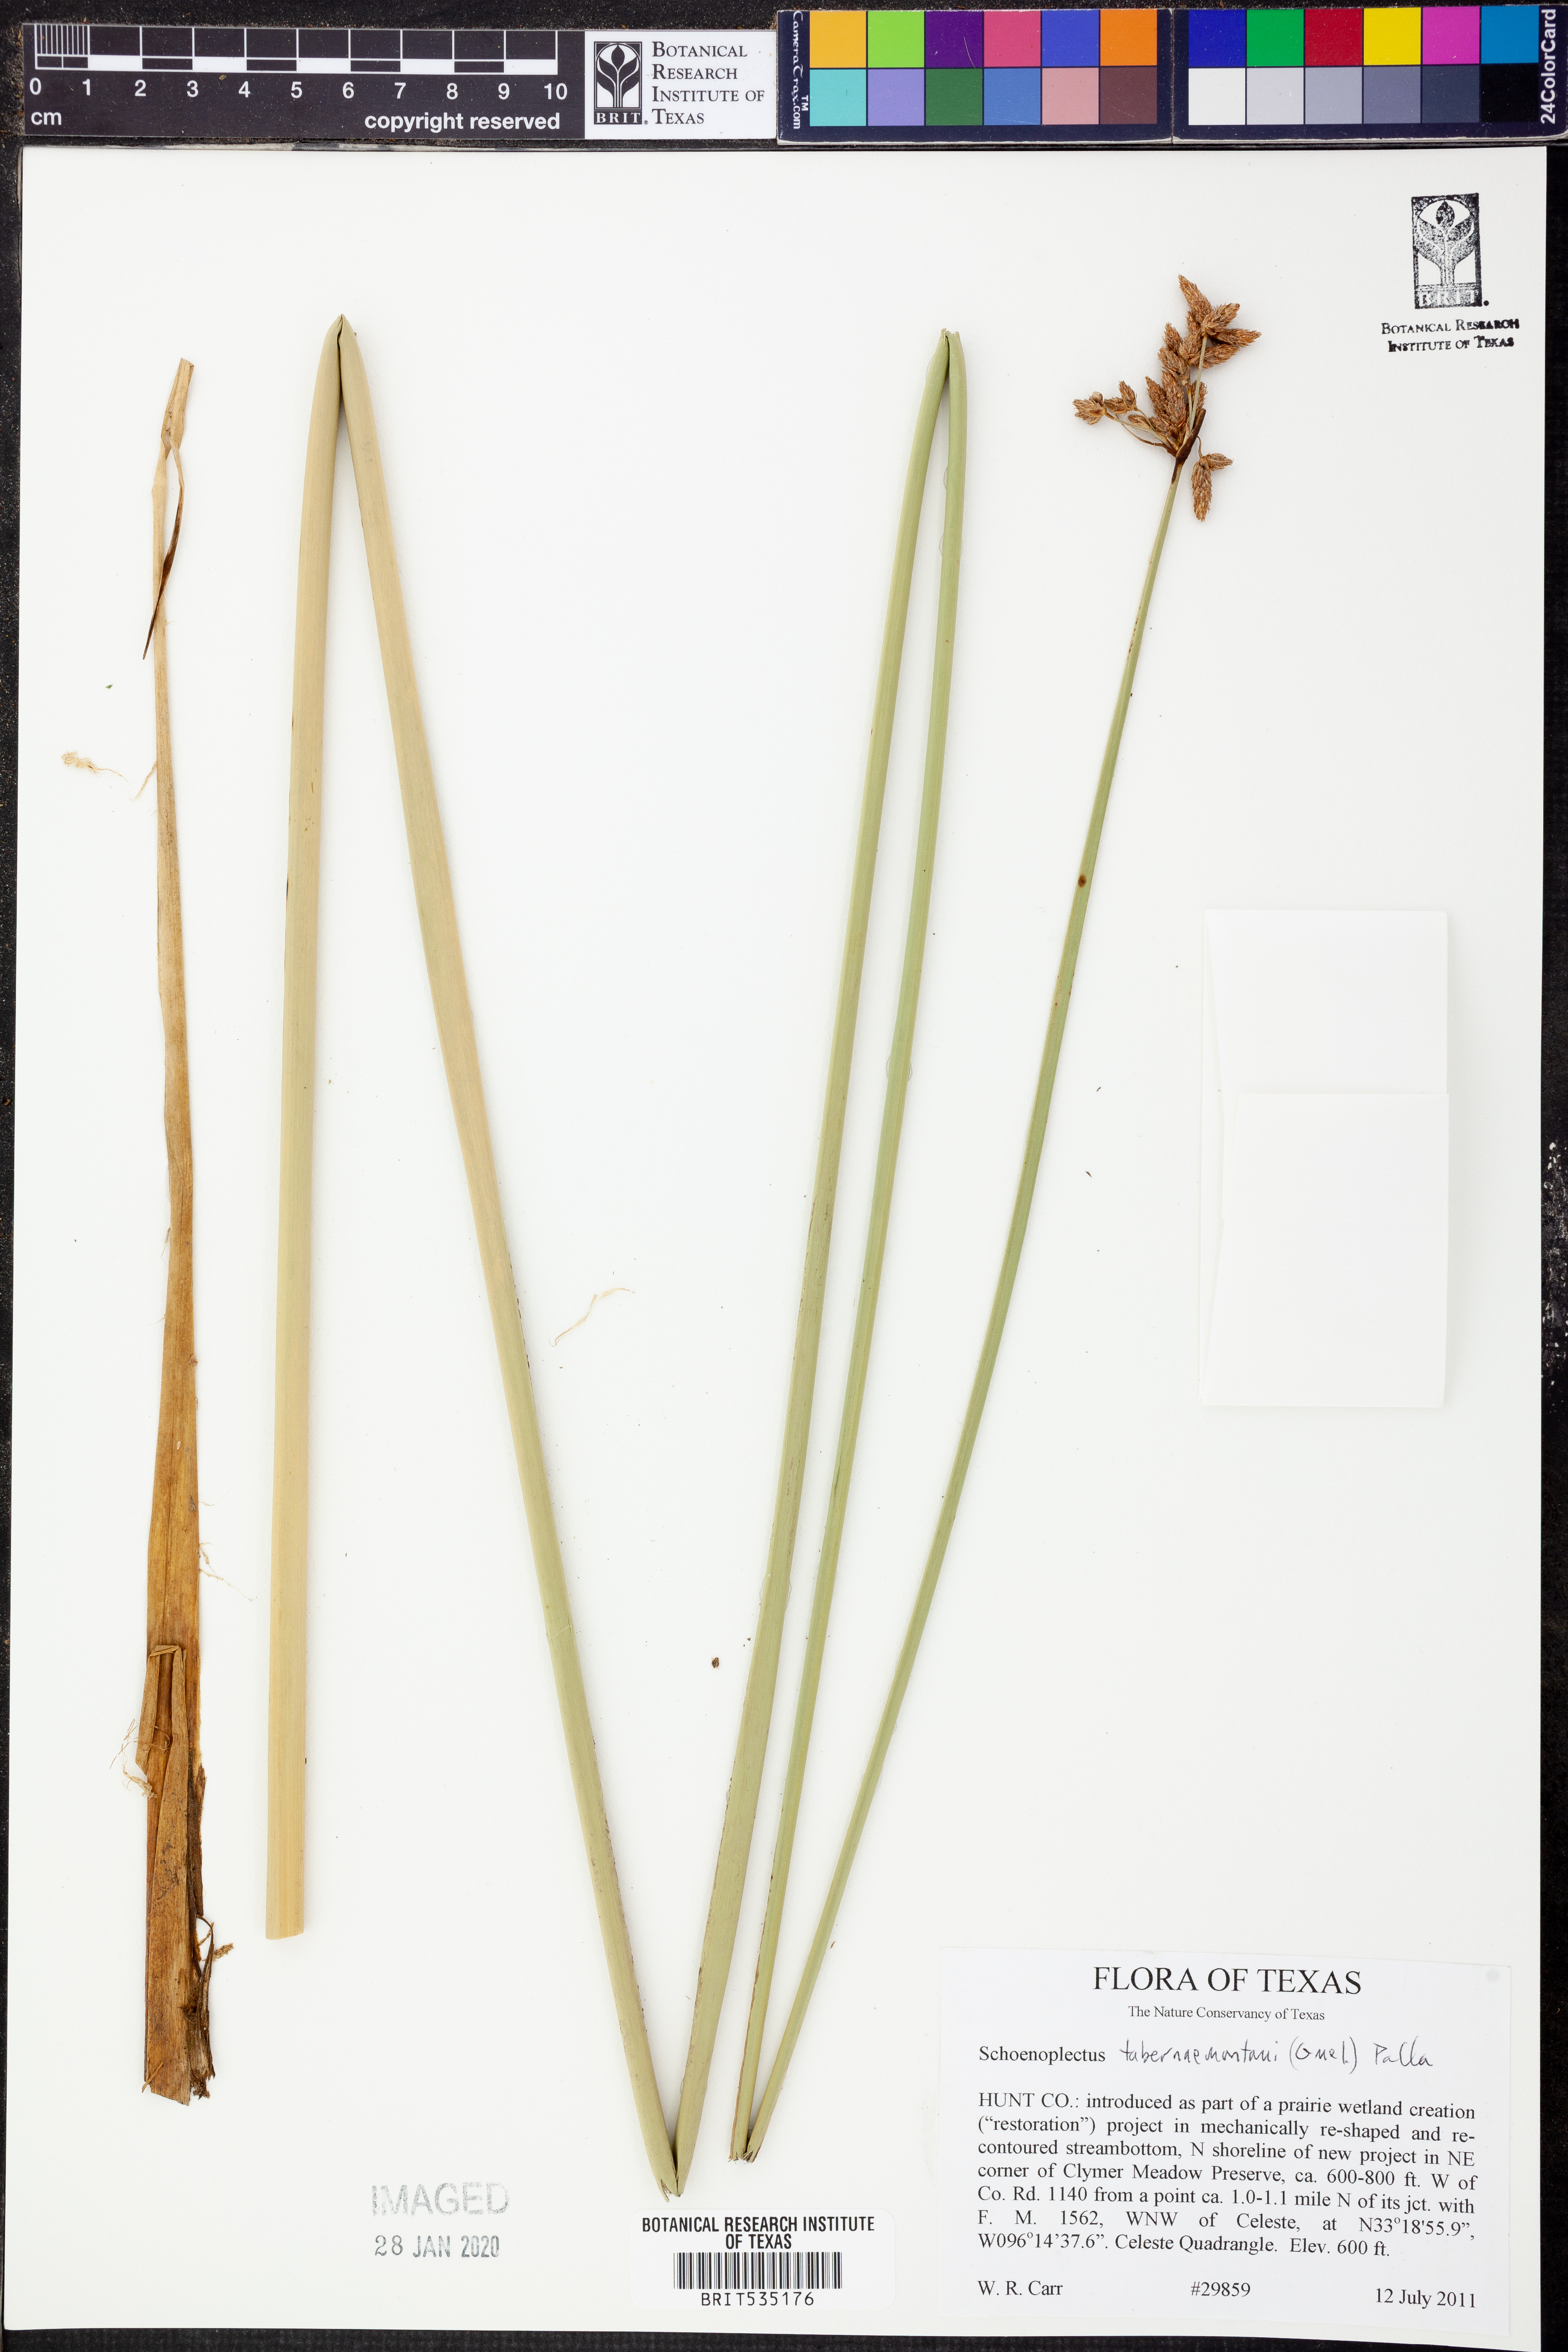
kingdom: Plantae
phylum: Tracheophyta
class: Liliopsida
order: Poales
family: Cyperaceae
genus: Schoenoplectus
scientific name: Schoenoplectus tabernaemontani
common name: Grey club-rush
